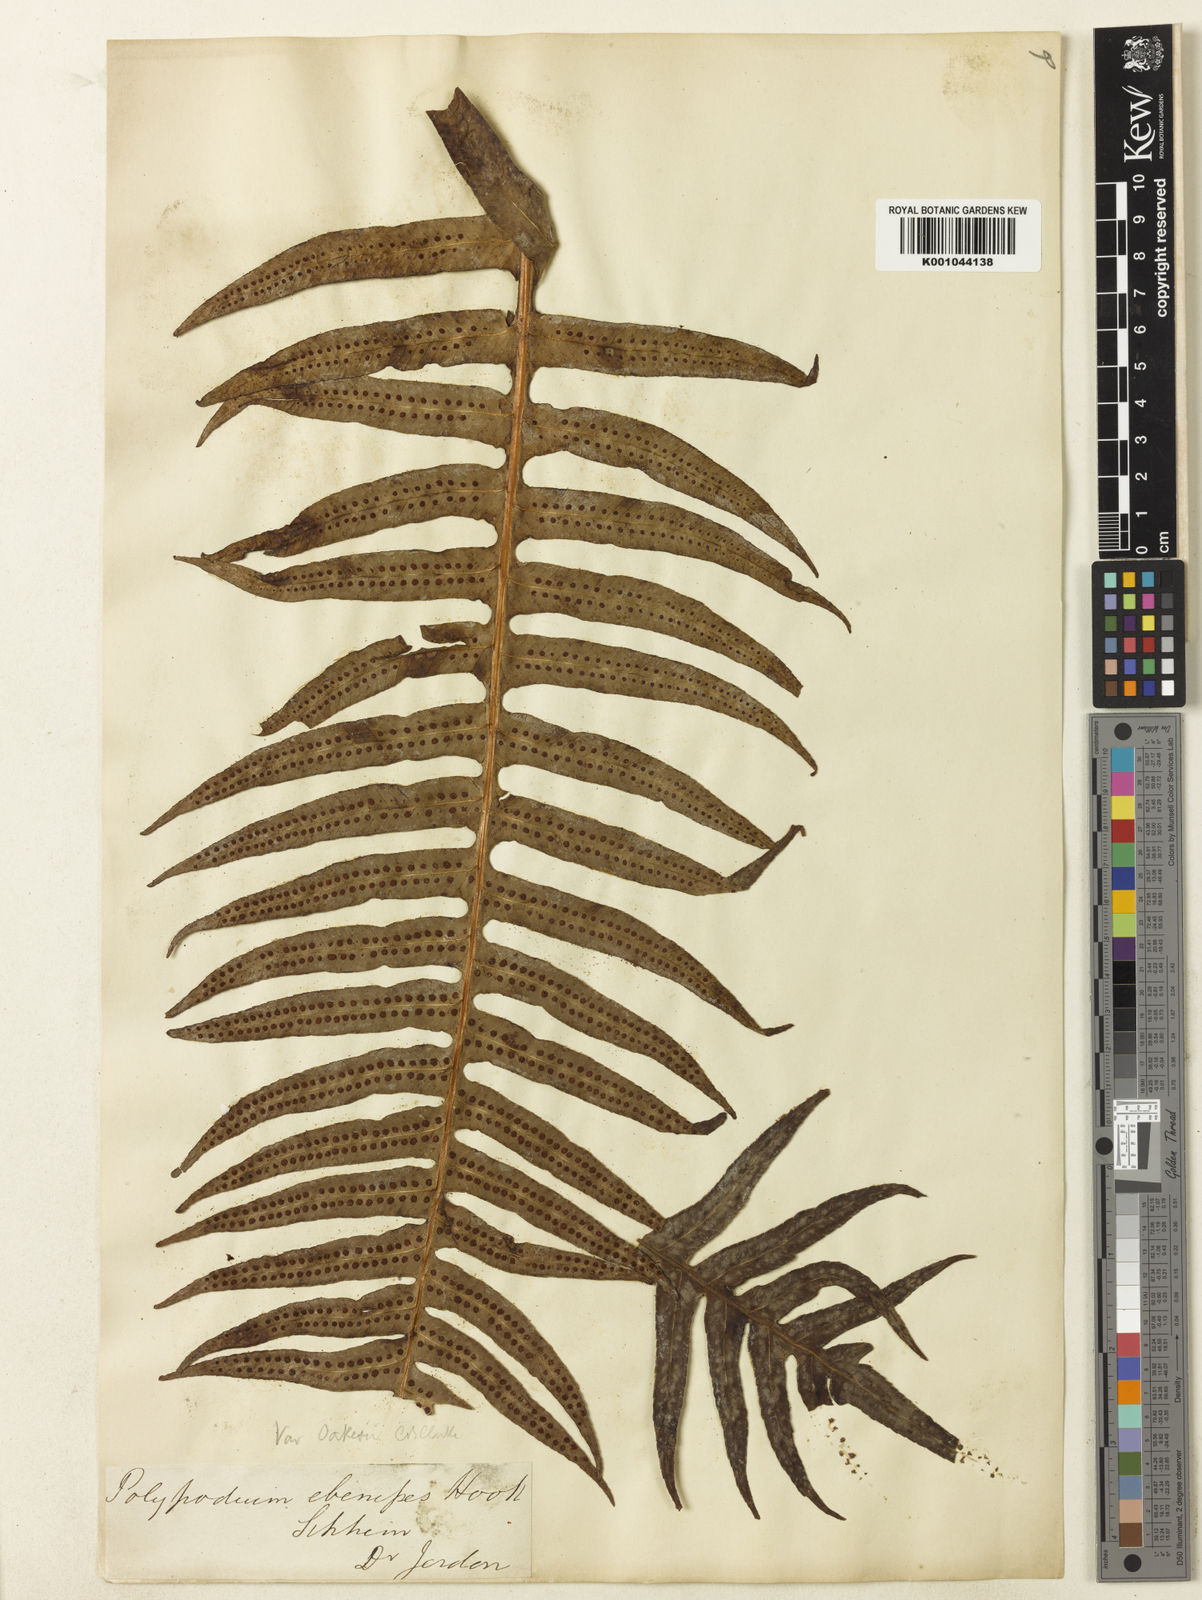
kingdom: Plantae
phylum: Tracheophyta
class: Polypodiopsida
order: Polypodiales
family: Polypodiaceae
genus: Selliguea
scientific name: Selliguea ebenipes
